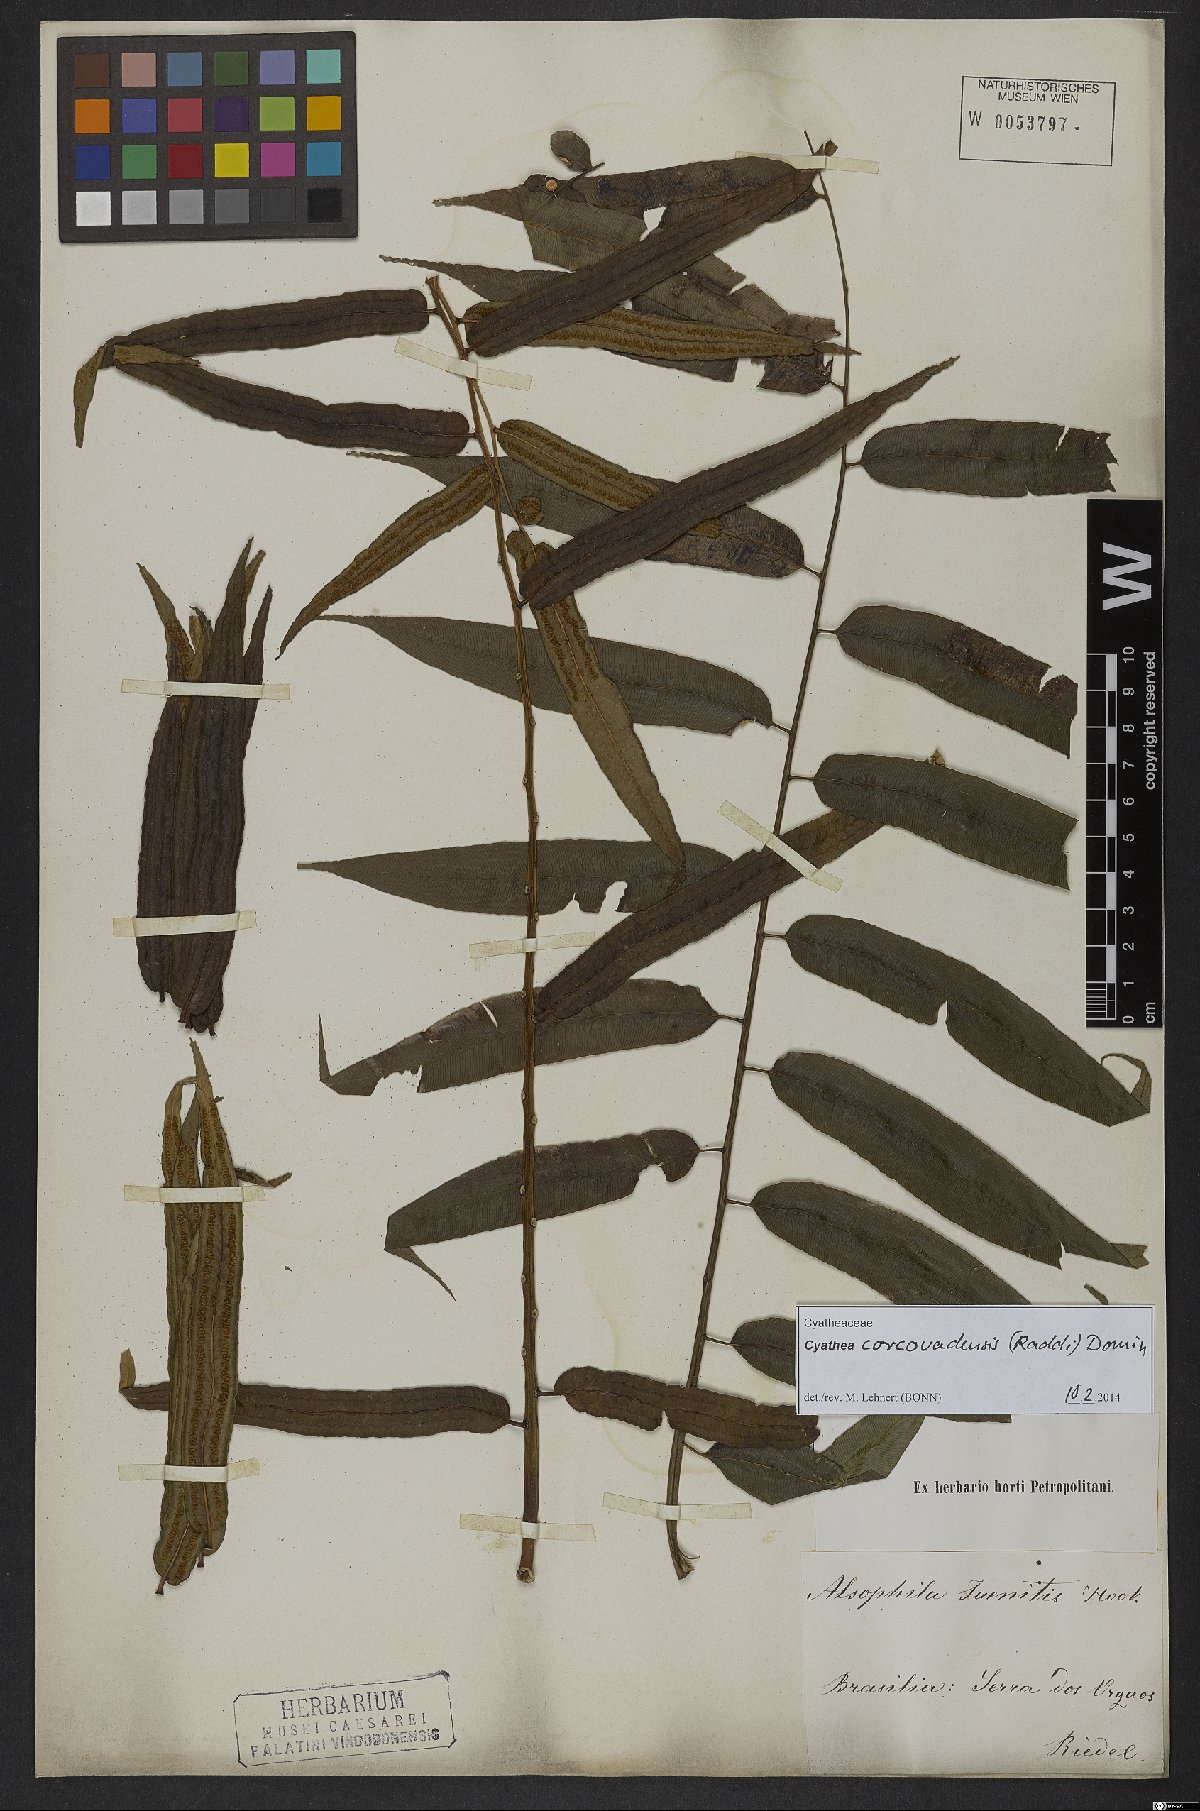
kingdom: Plantae
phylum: Tracheophyta
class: Polypodiopsida
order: Cyatheales
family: Cyatheaceae
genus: Cyathea
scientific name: Cyathea corcovadensis
